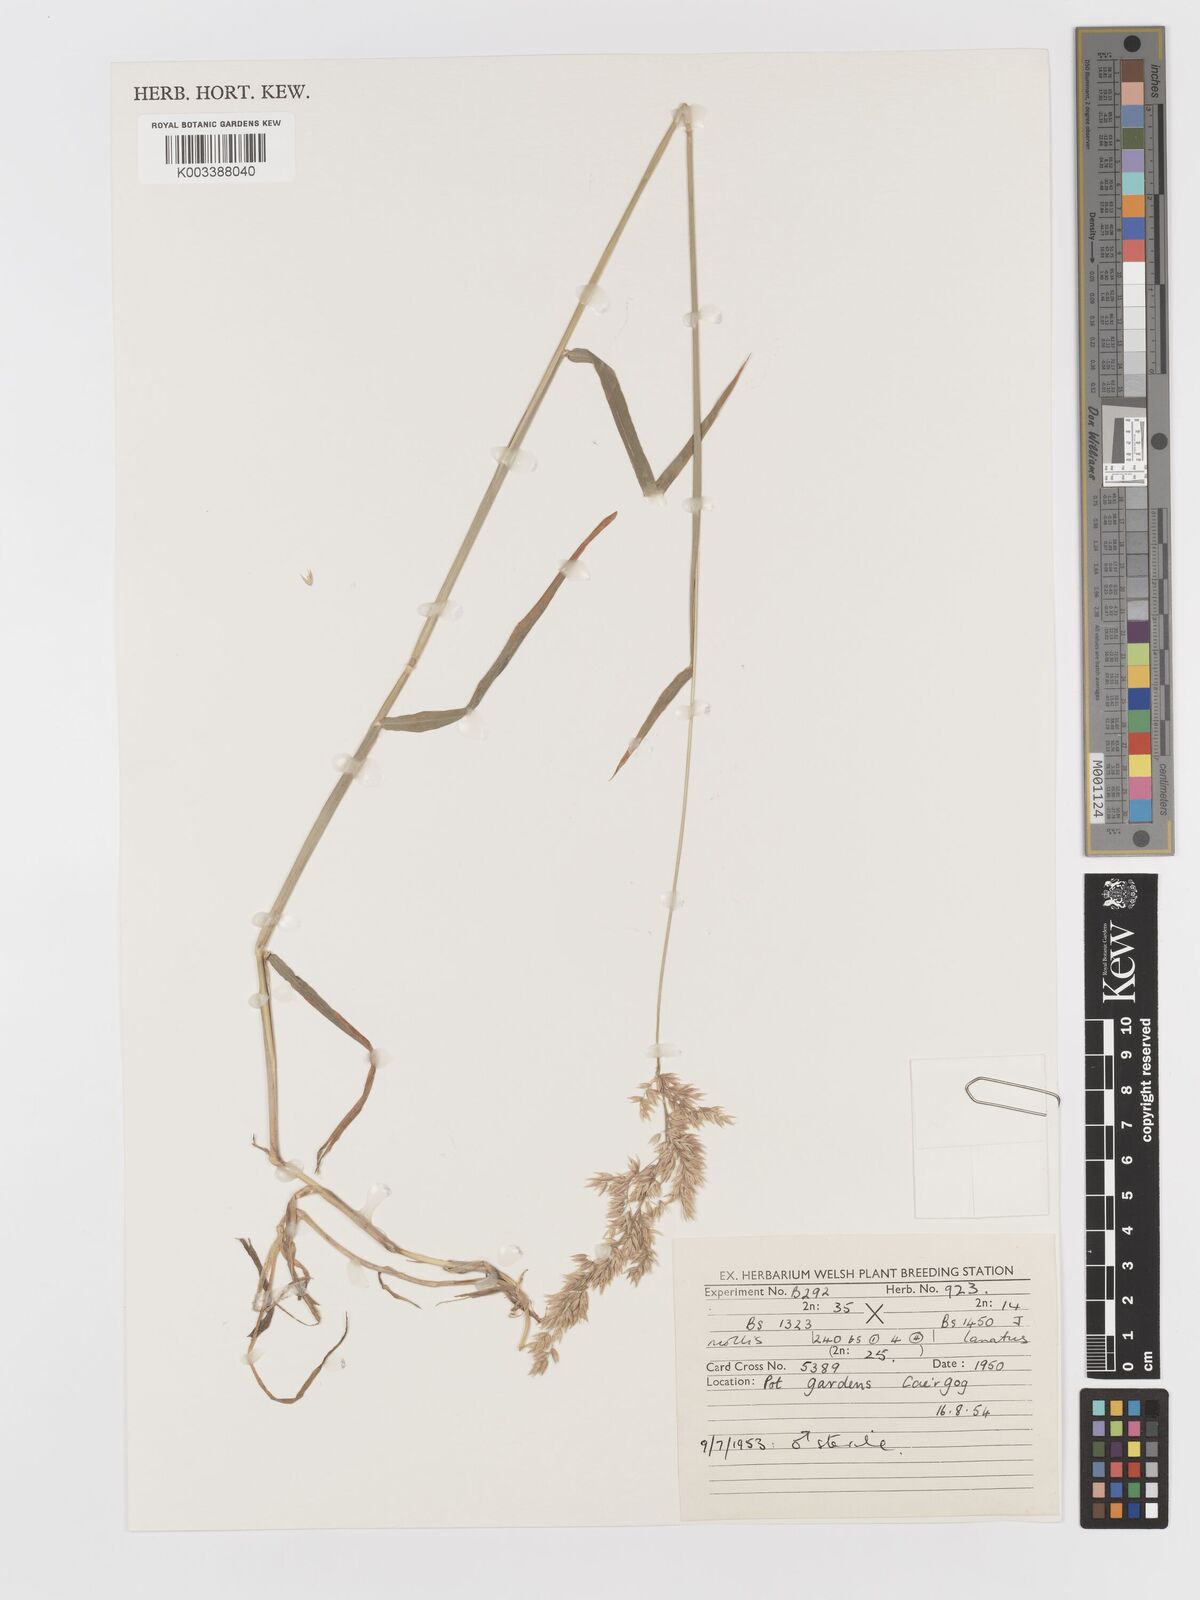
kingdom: Plantae
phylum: Tracheophyta
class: Liliopsida
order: Poales
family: Poaceae
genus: Holcus
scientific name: Holcus lanatus
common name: Yorkshire-fog
